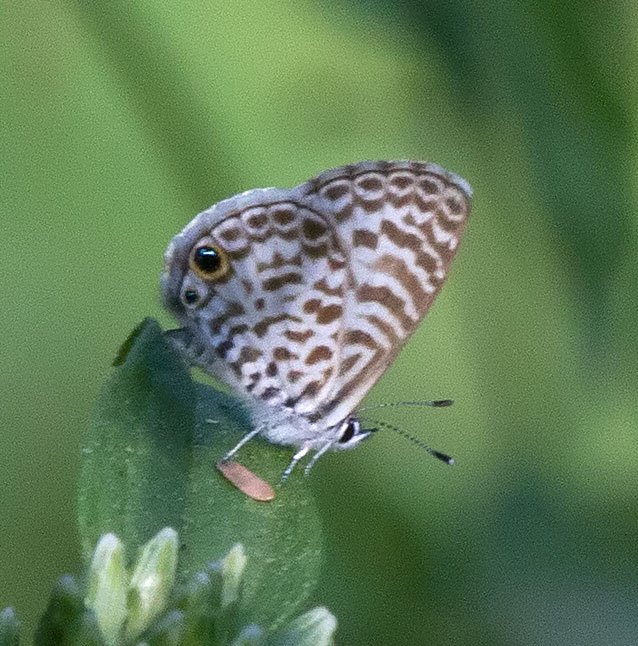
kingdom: Animalia
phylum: Arthropoda
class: Insecta
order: Lepidoptera
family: Lycaenidae
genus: Leptotes
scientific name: Leptotes cassius
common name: Cassius Blue
